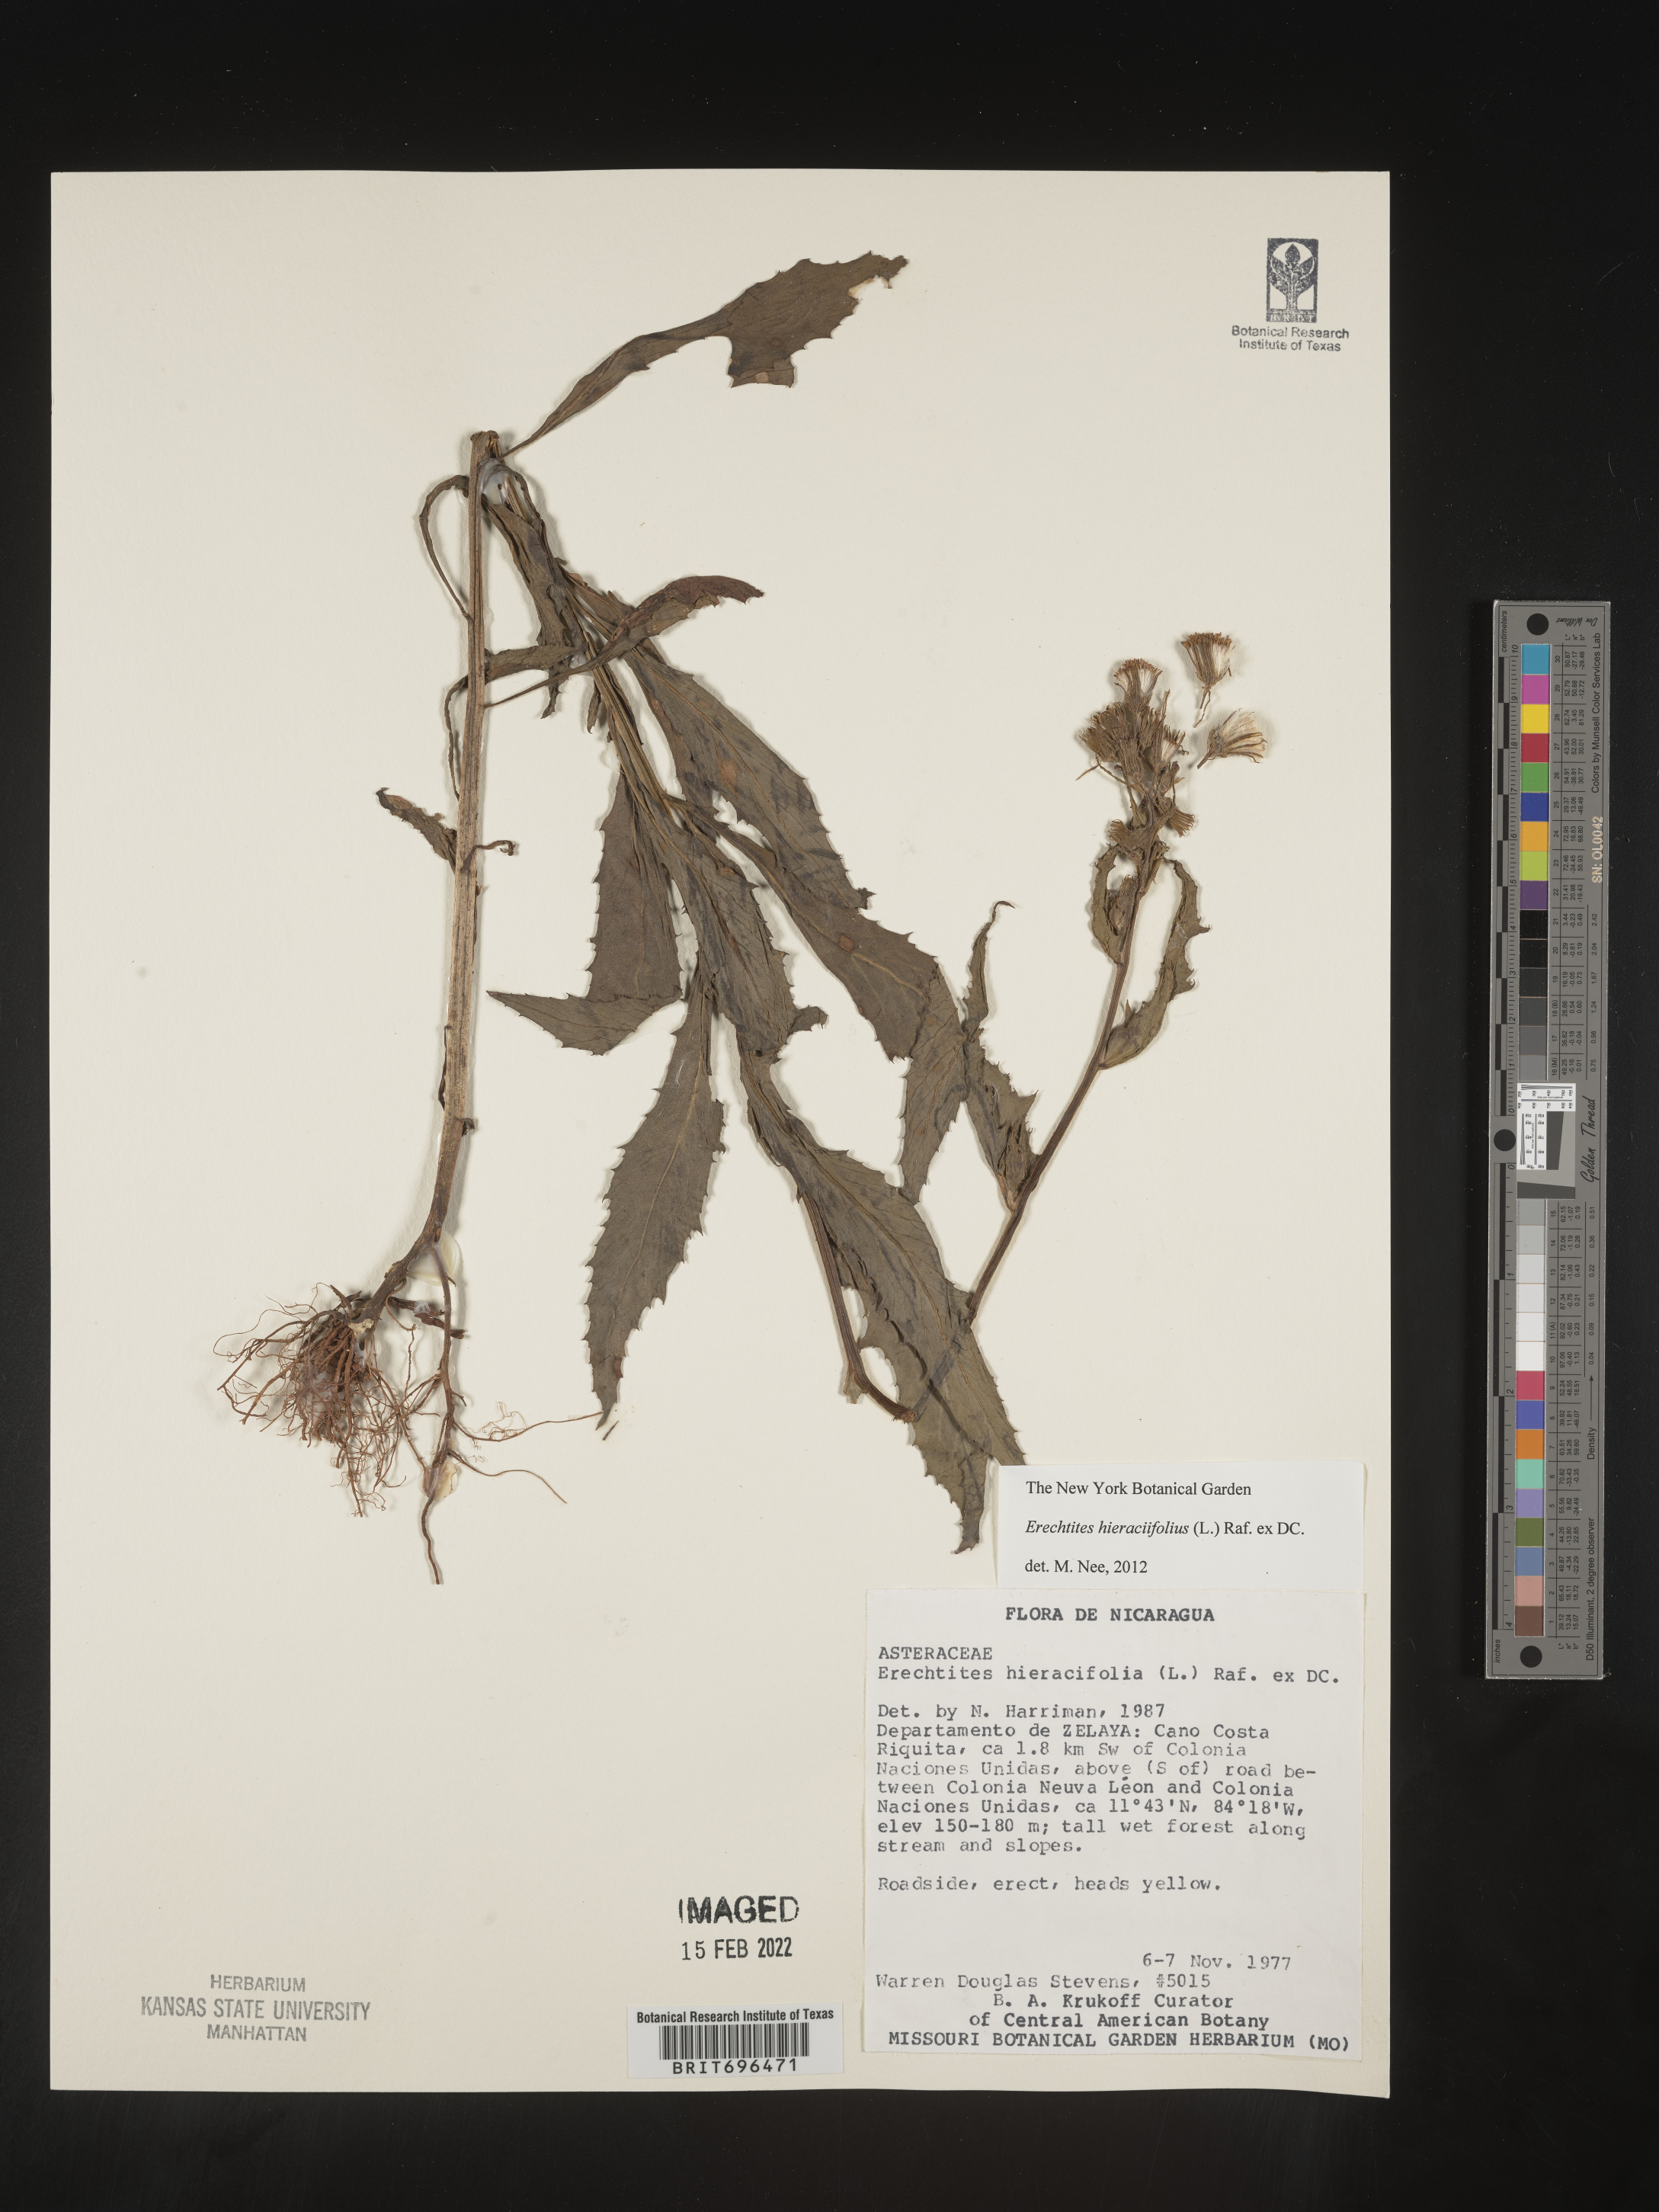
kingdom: Plantae
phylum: Tracheophyta
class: Magnoliopsida
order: Asterales
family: Asteraceae
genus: Erechtites
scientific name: Erechtites
